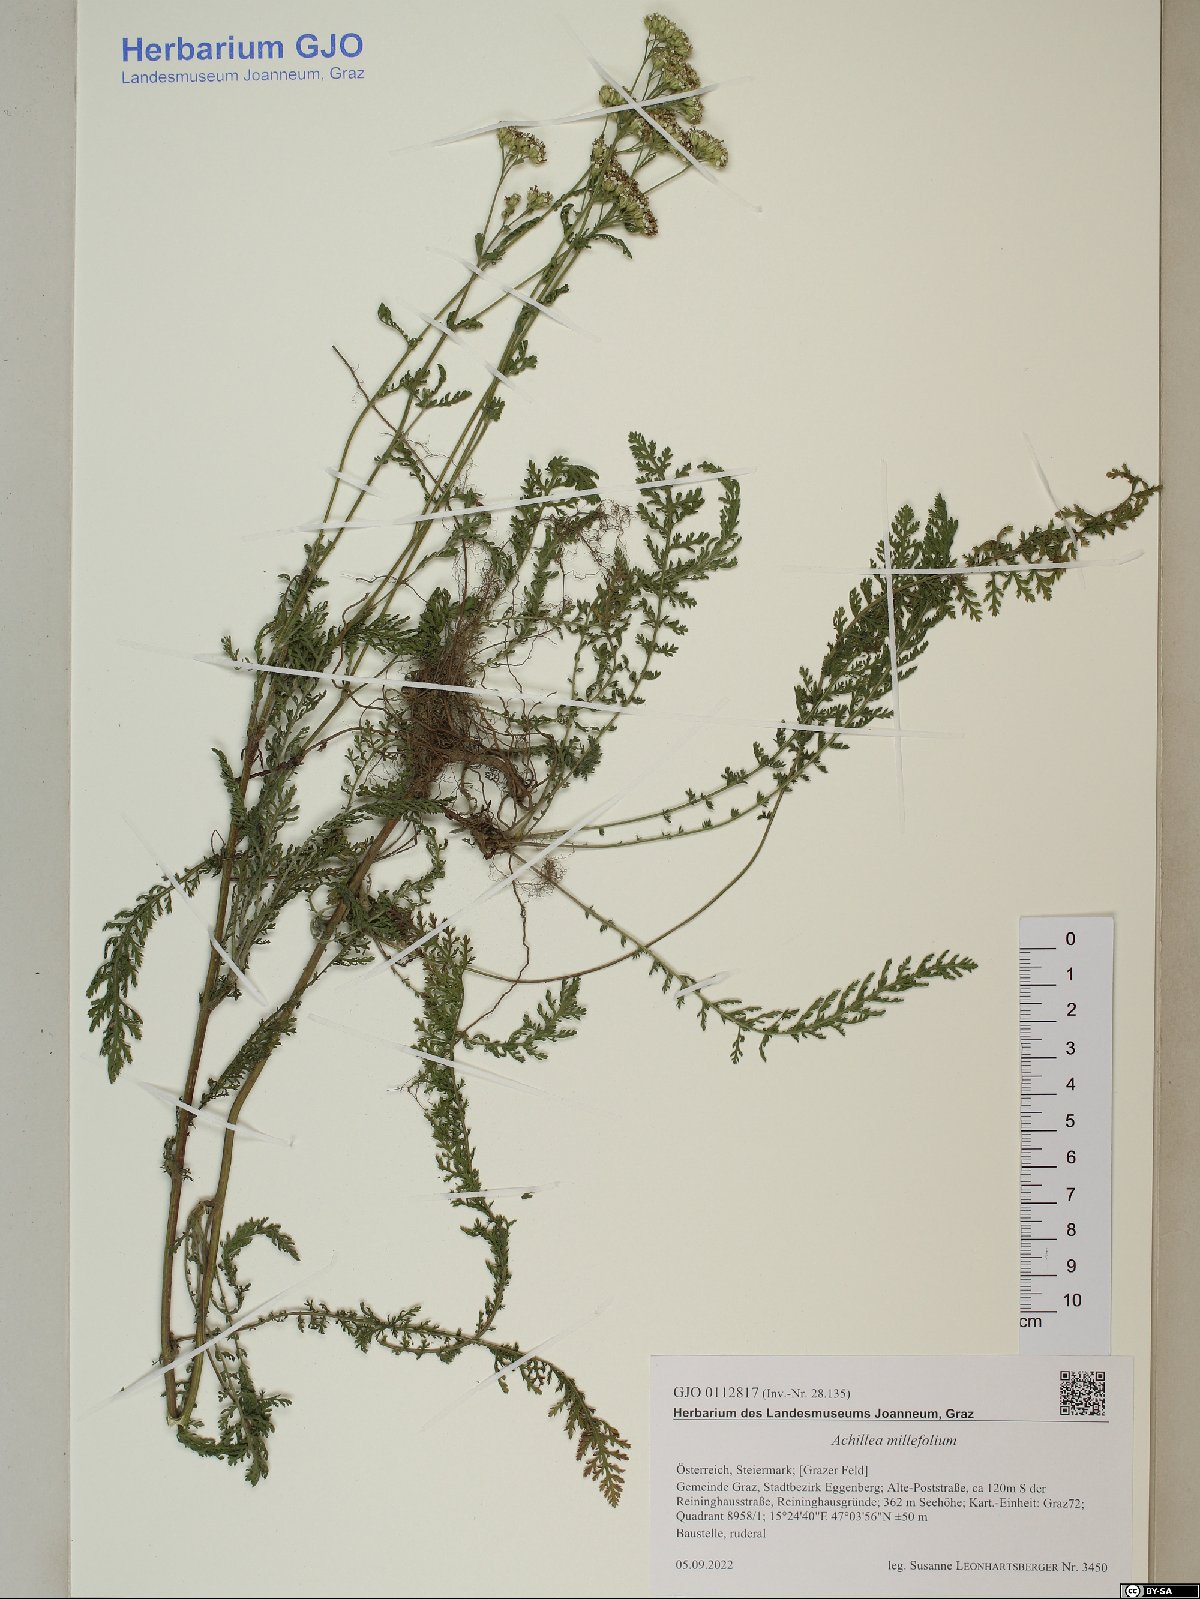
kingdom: Plantae
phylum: Tracheophyta
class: Magnoliopsida
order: Asterales
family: Asteraceae
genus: Achillea
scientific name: Achillea millefolium
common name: Yarrow
